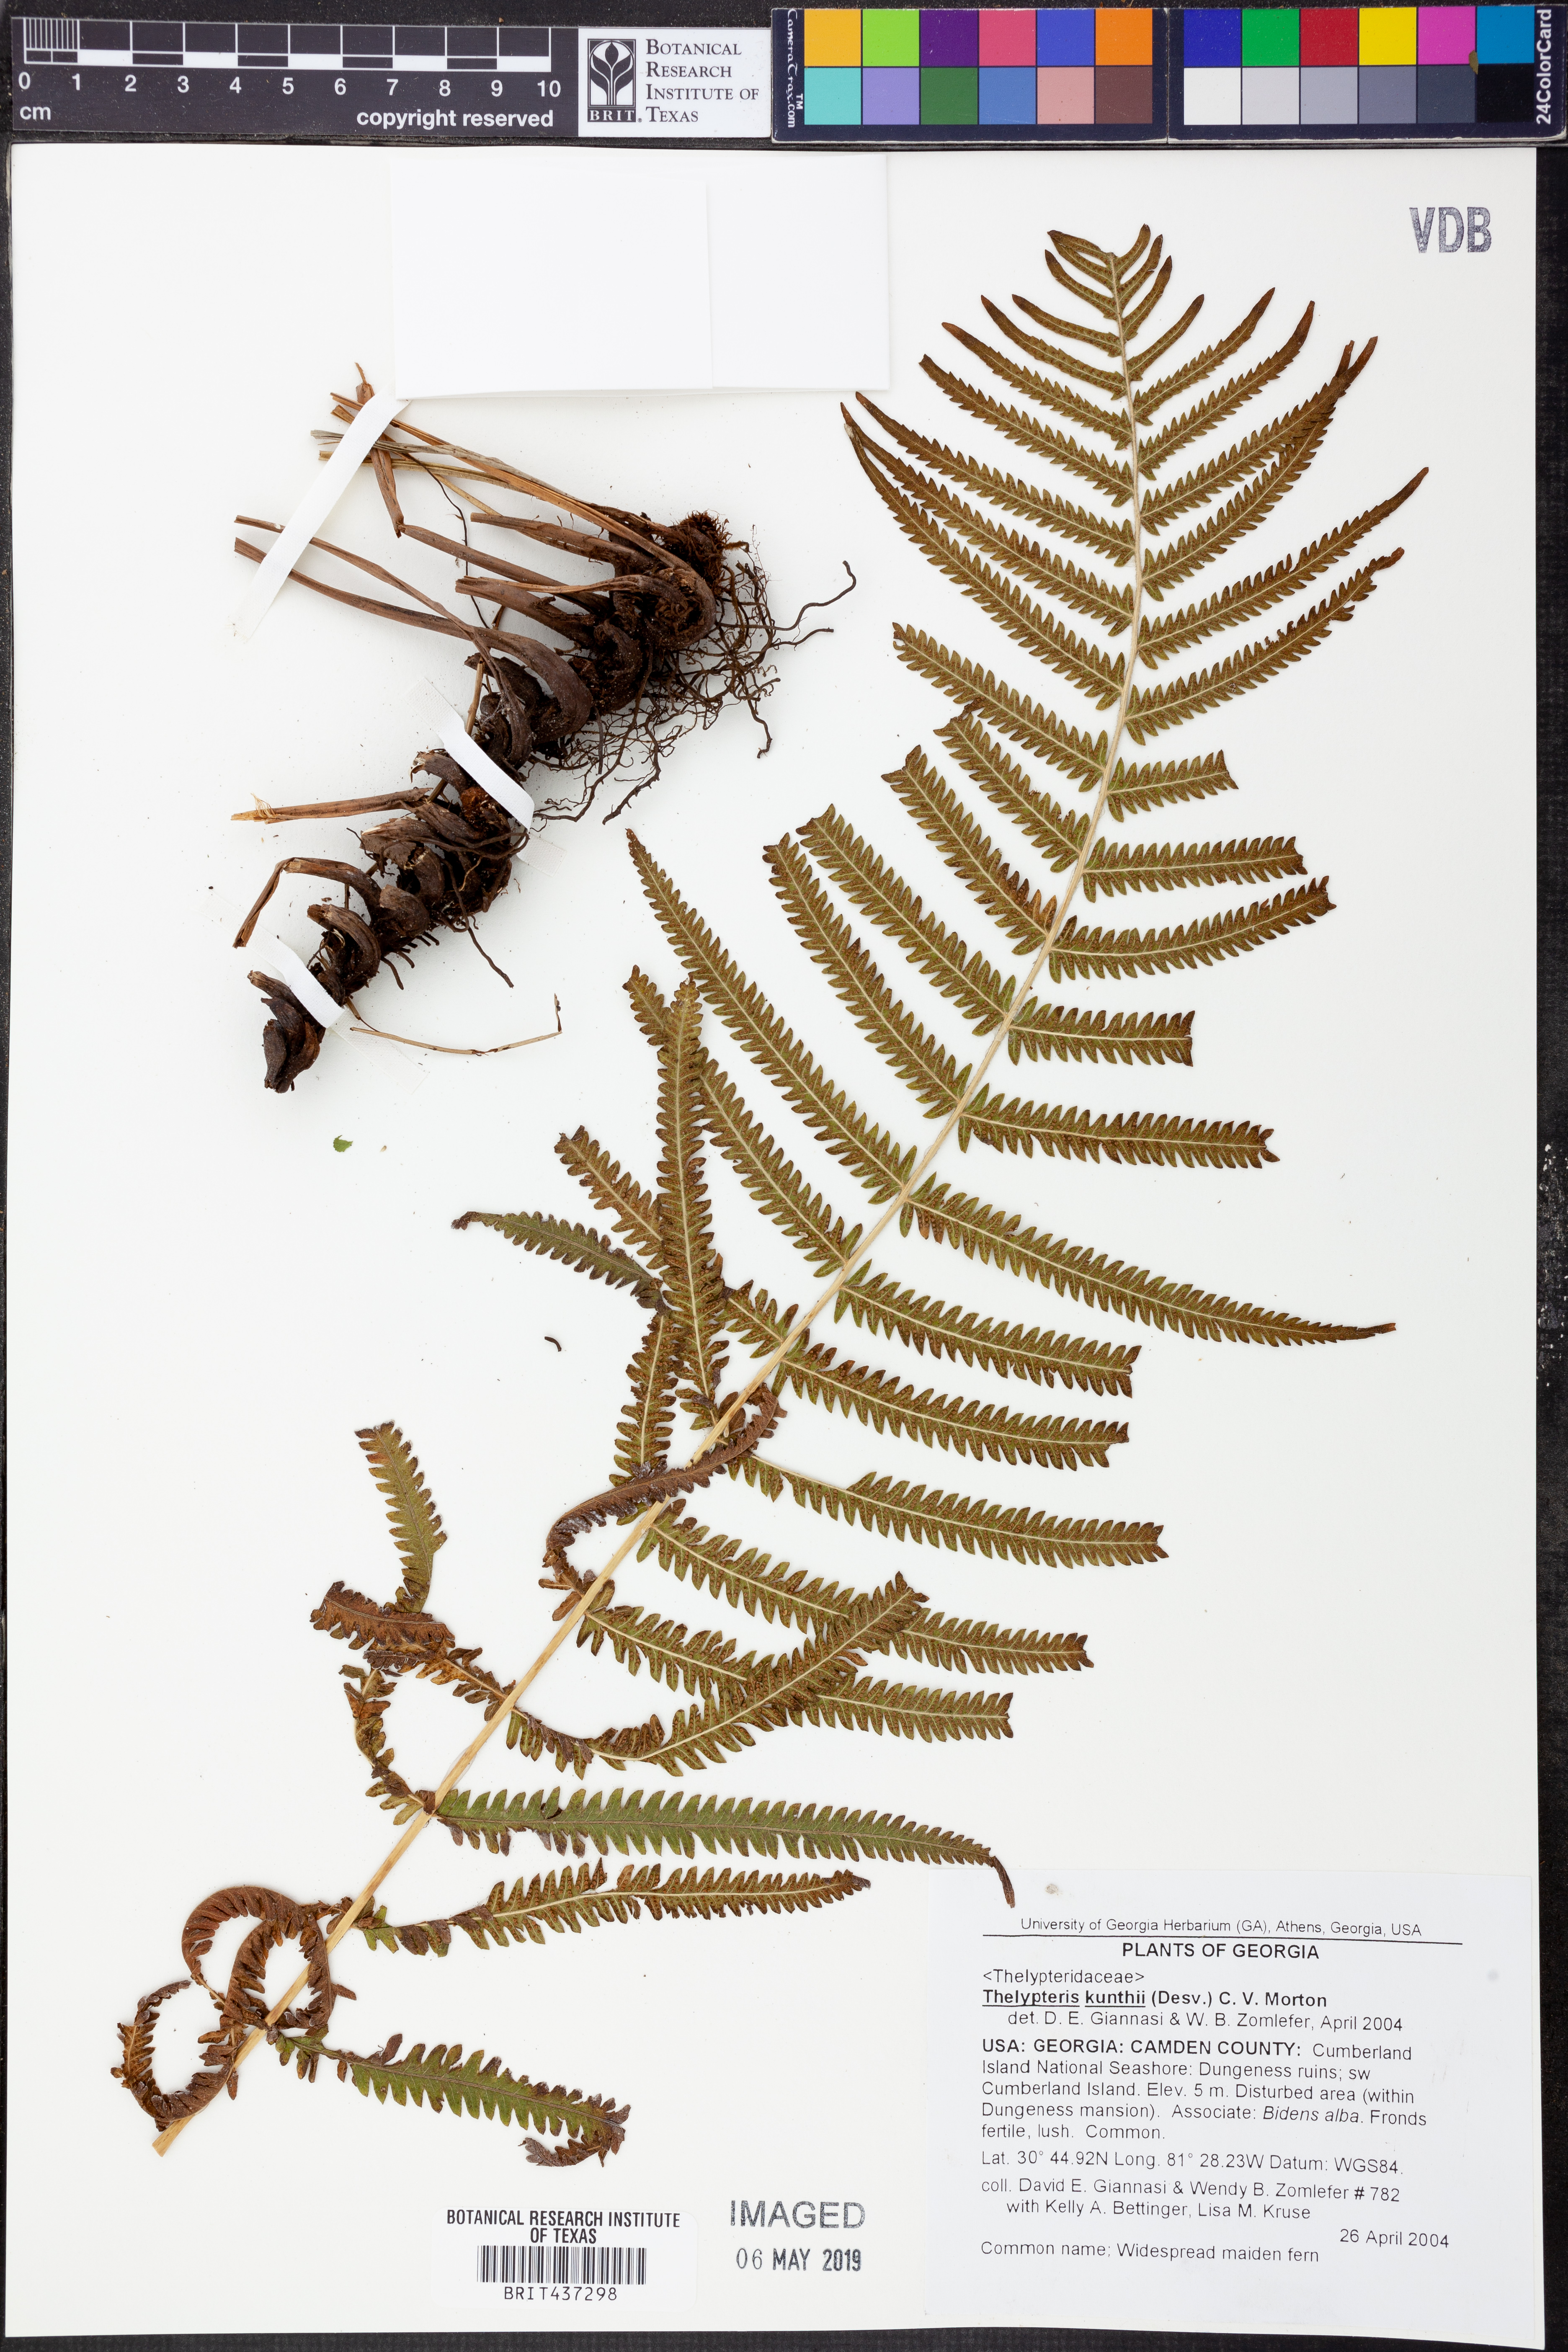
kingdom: Plantae
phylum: Tracheophyta
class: Polypodiopsida
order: Polypodiales
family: Thelypteridaceae
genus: Pelazoneuron
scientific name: Pelazoneuron kunthii
